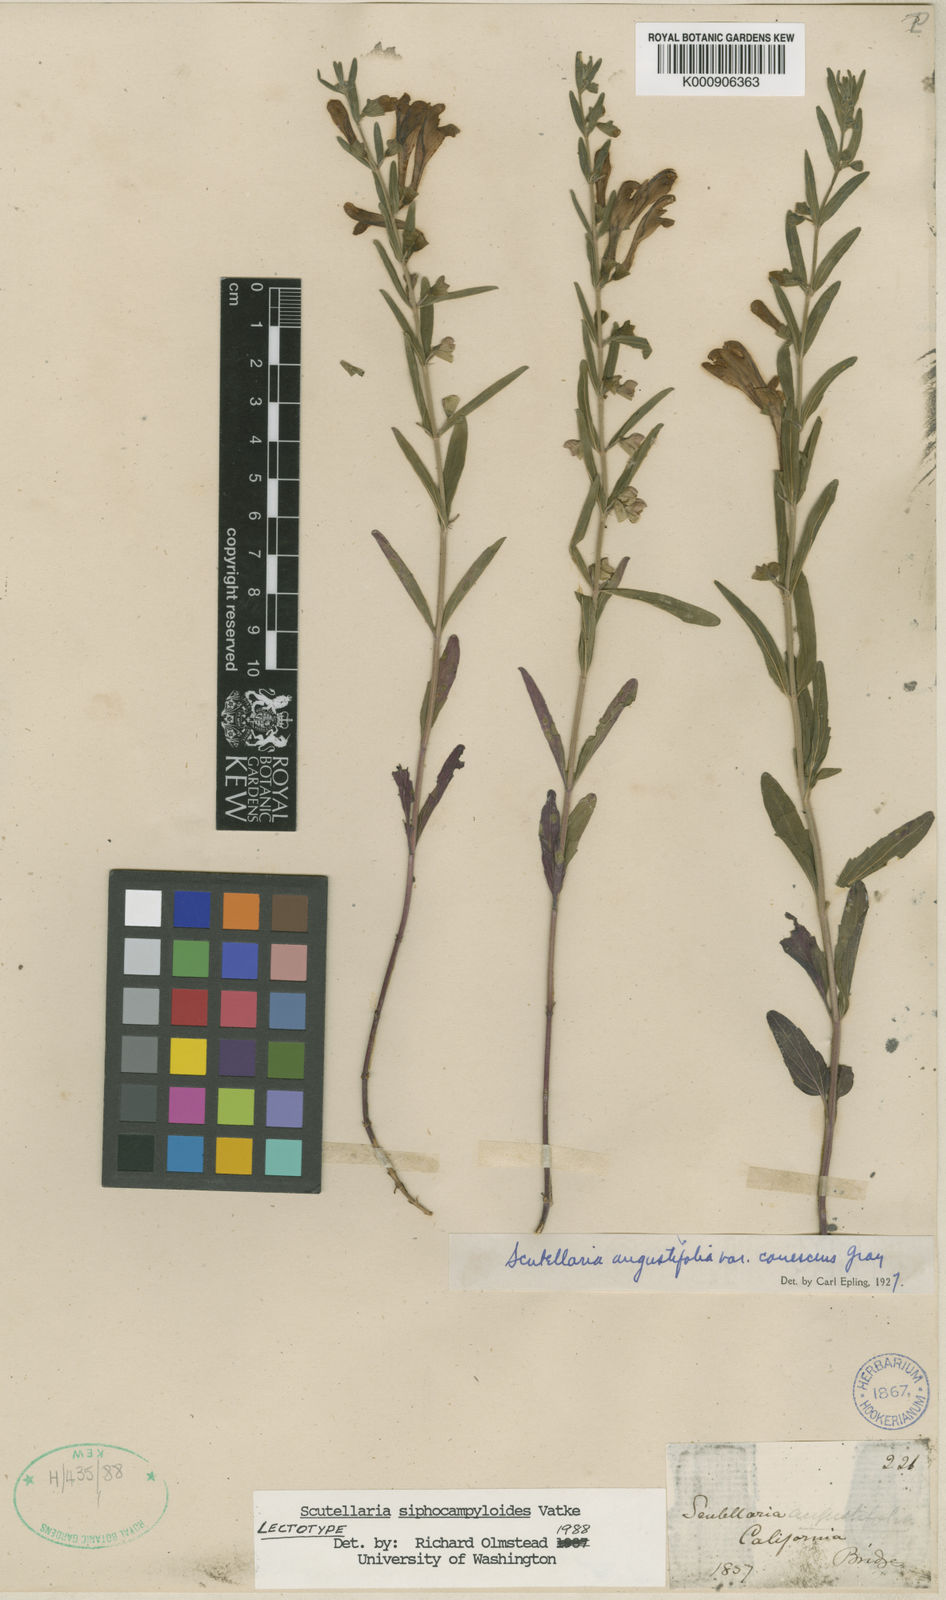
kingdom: Plantae
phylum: Tracheophyta
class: Magnoliopsida
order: Lamiales
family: Lamiaceae
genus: Scutellaria
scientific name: Scutellaria siphocampyloides
